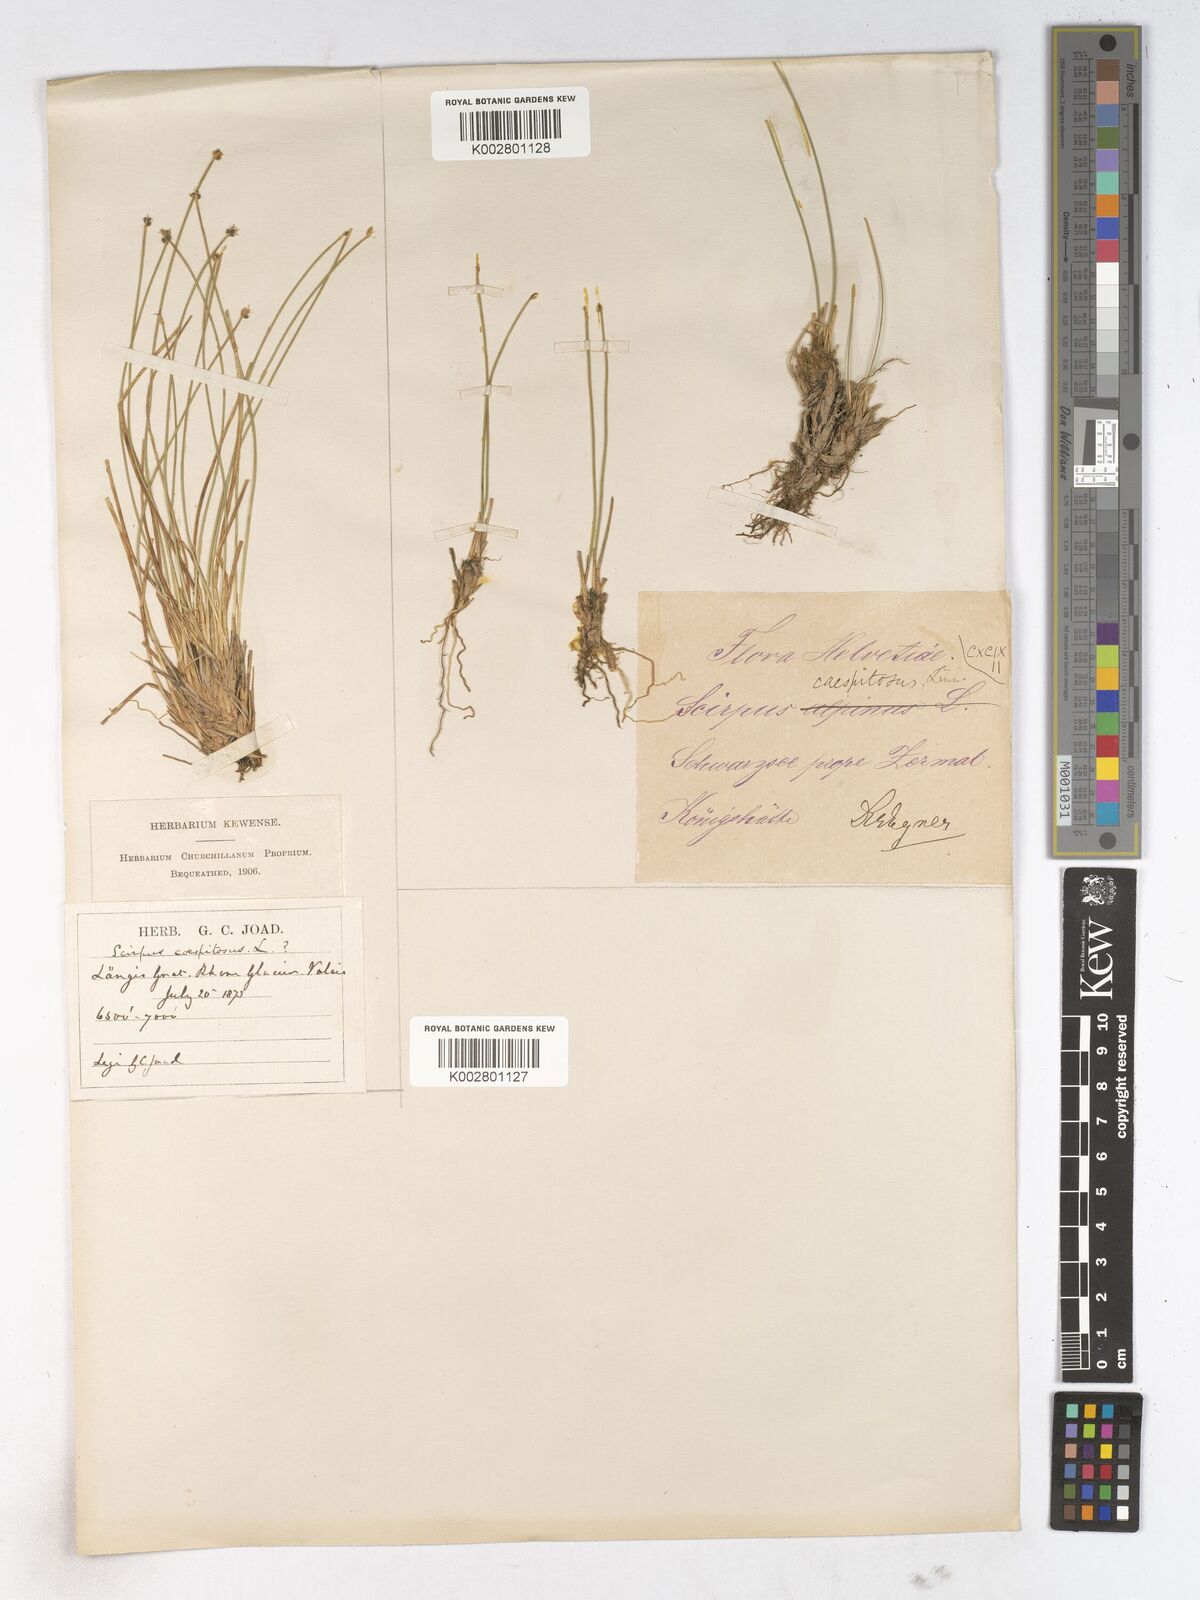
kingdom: Plantae
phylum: Tracheophyta
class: Liliopsida
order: Poales
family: Cyperaceae
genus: Trichophorum
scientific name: Trichophorum cespitosum
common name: Cespitose bulrush
